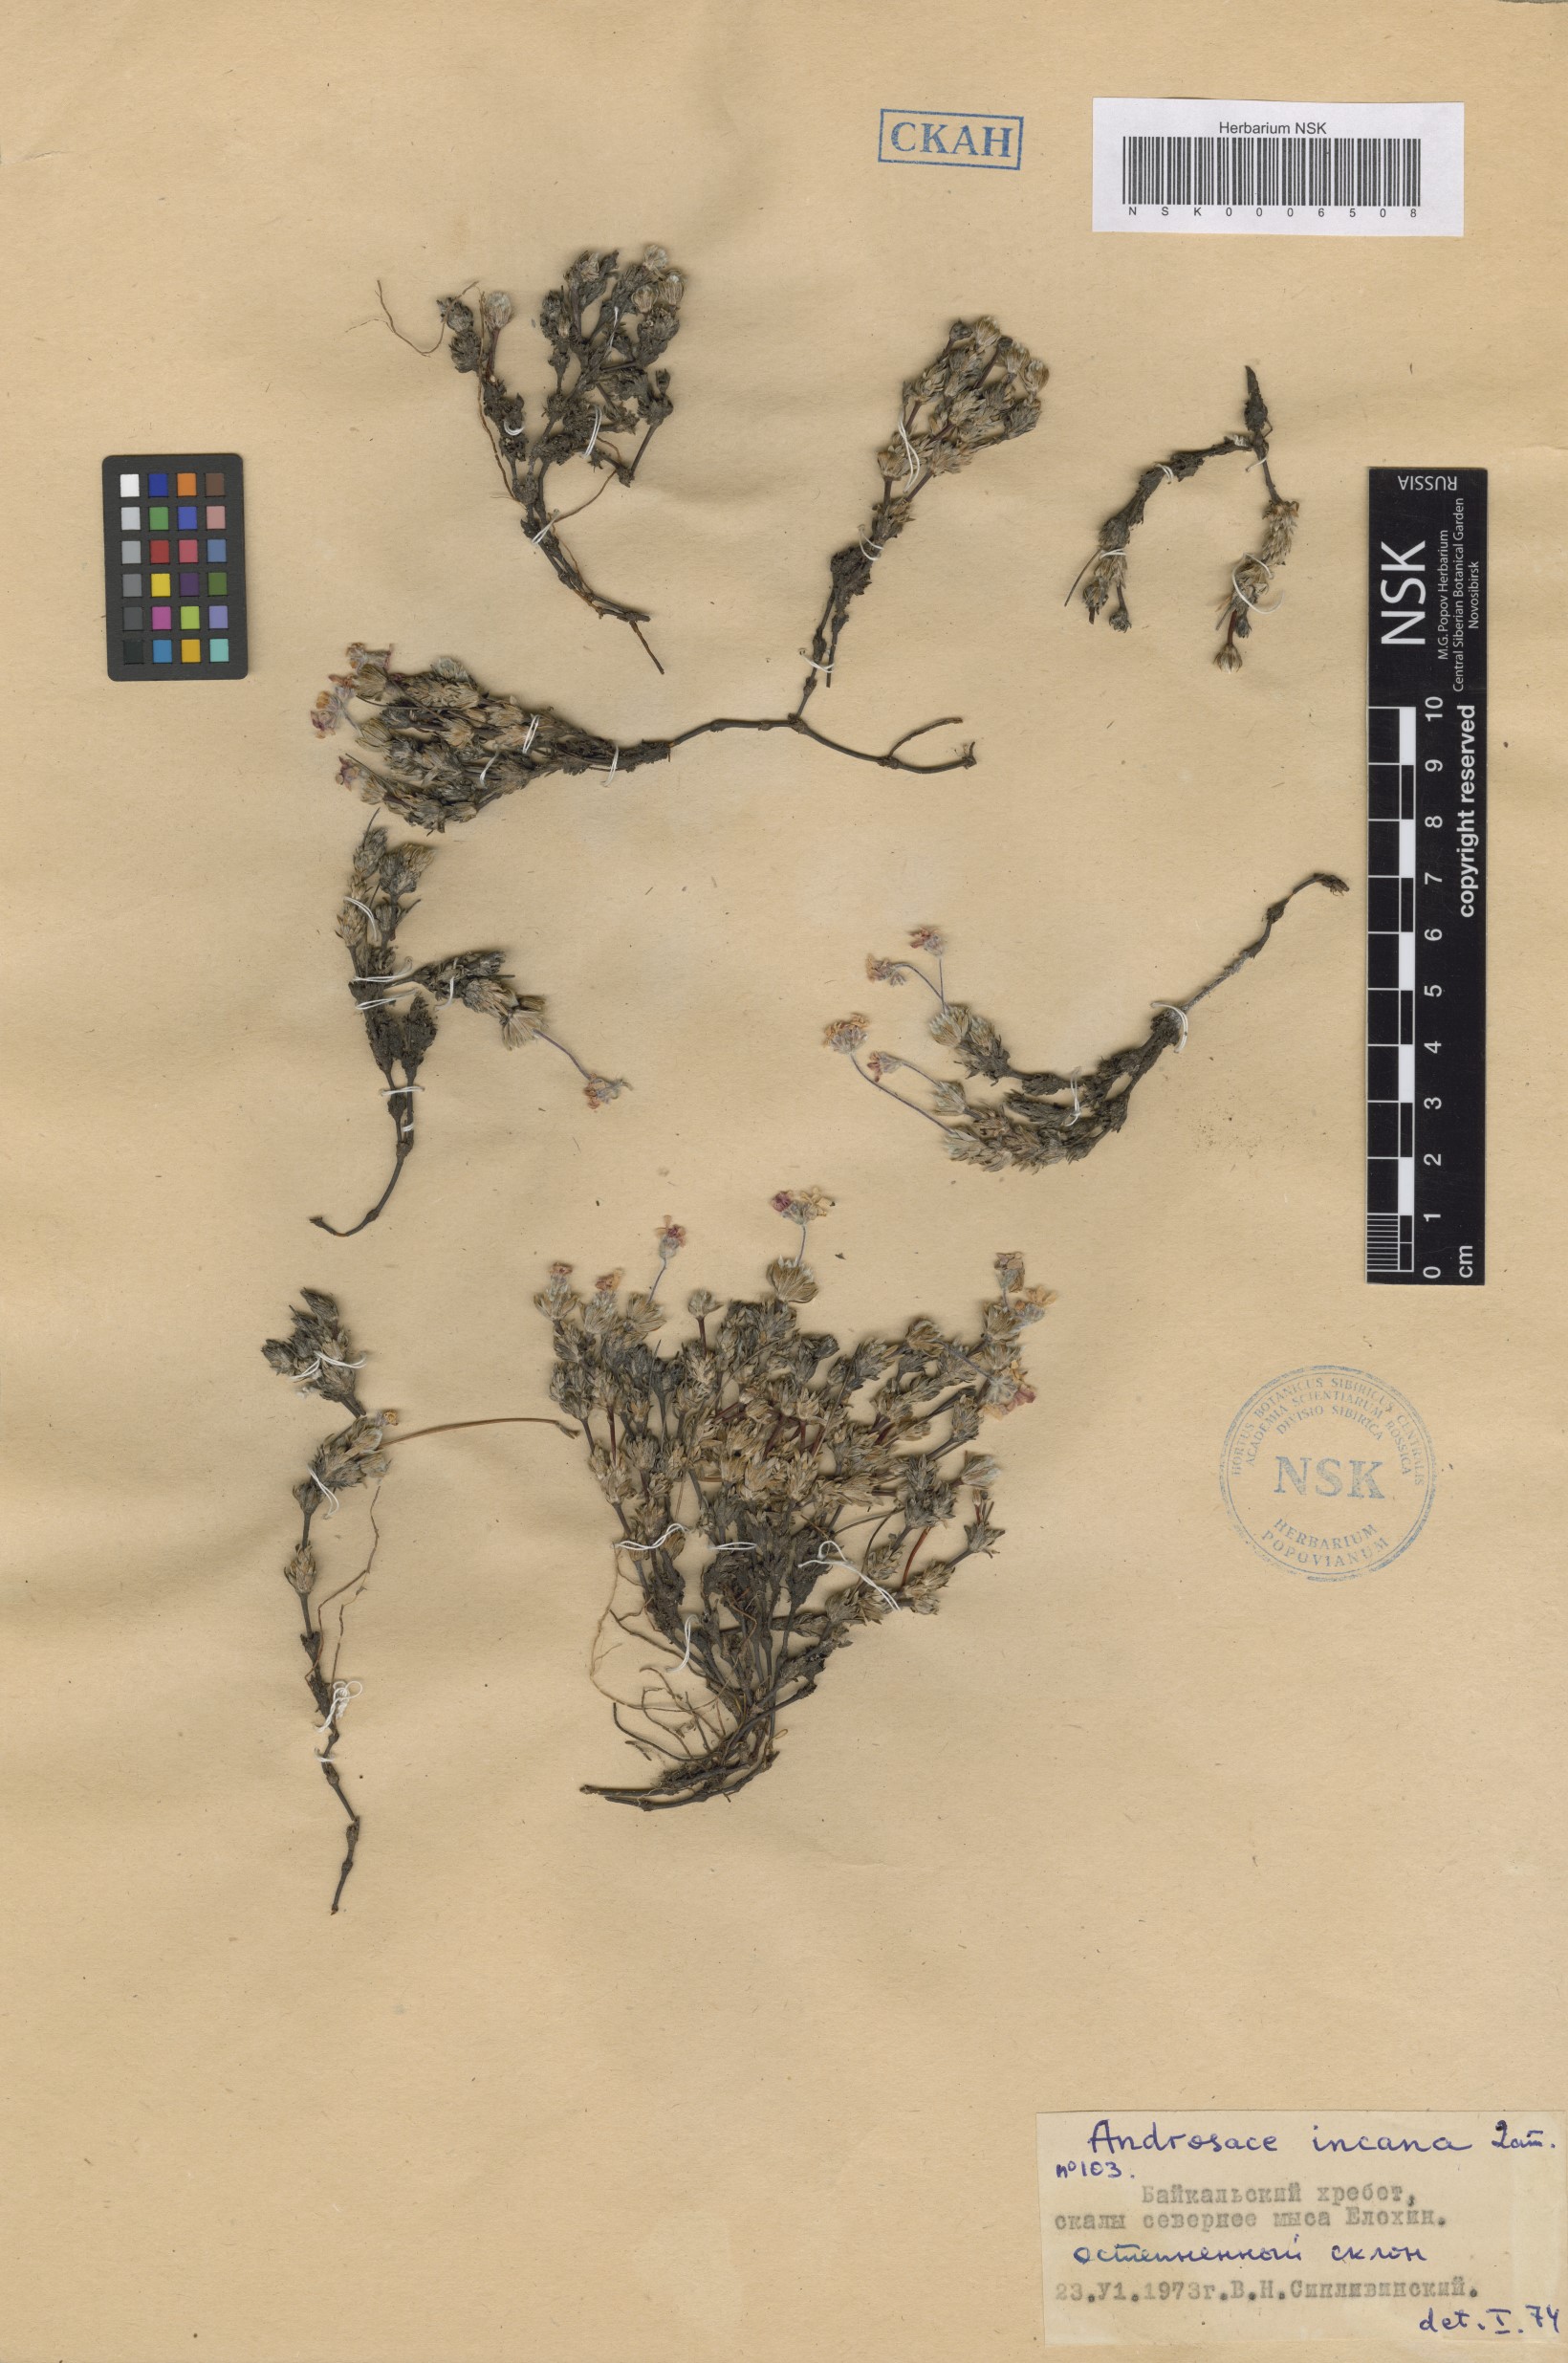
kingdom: Plantae
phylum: Tracheophyta
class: Magnoliopsida
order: Ericales
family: Primulaceae
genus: Androsace
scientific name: Androsace incana
